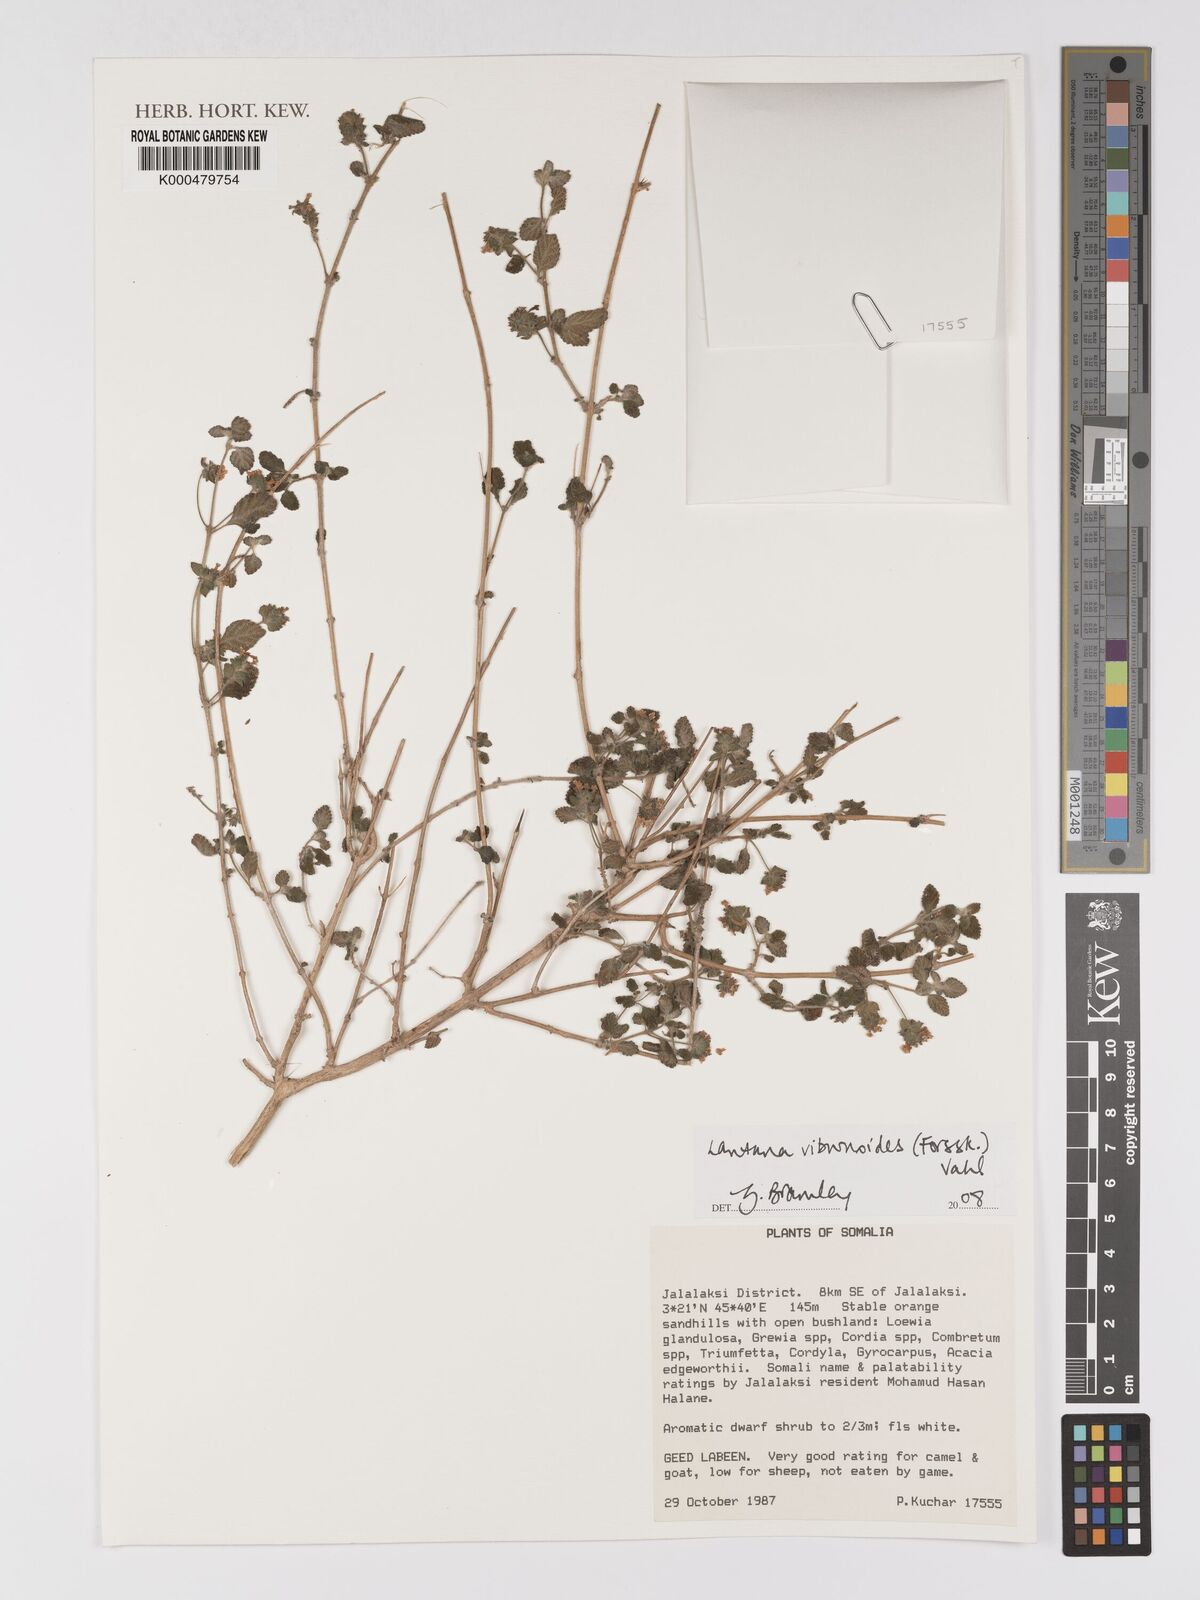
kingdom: Plantae
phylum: Tracheophyta
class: Magnoliopsida
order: Lamiales
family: Verbenaceae
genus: Lantana
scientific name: Lantana viburnoides
